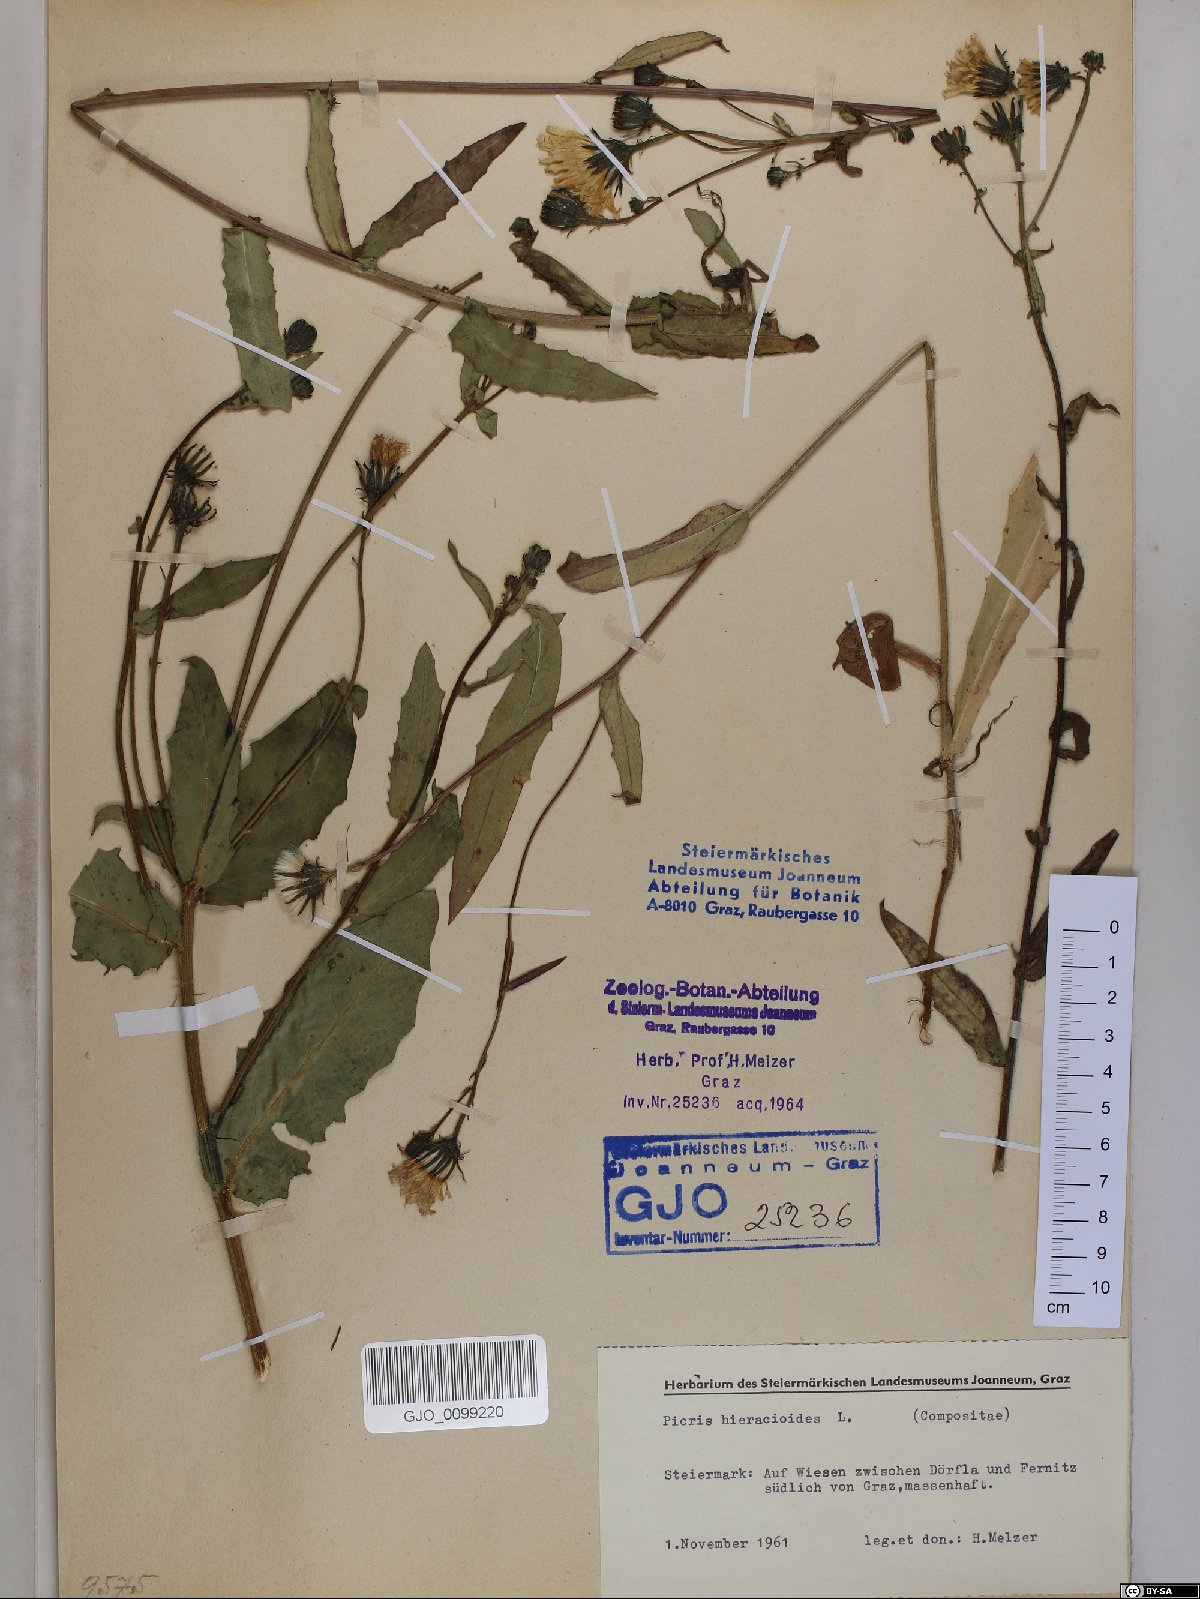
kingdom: Plantae
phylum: Tracheophyta
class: Magnoliopsida
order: Asterales
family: Asteraceae
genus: Picris
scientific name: Picris hieracioides
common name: Hawkweed oxtongue
